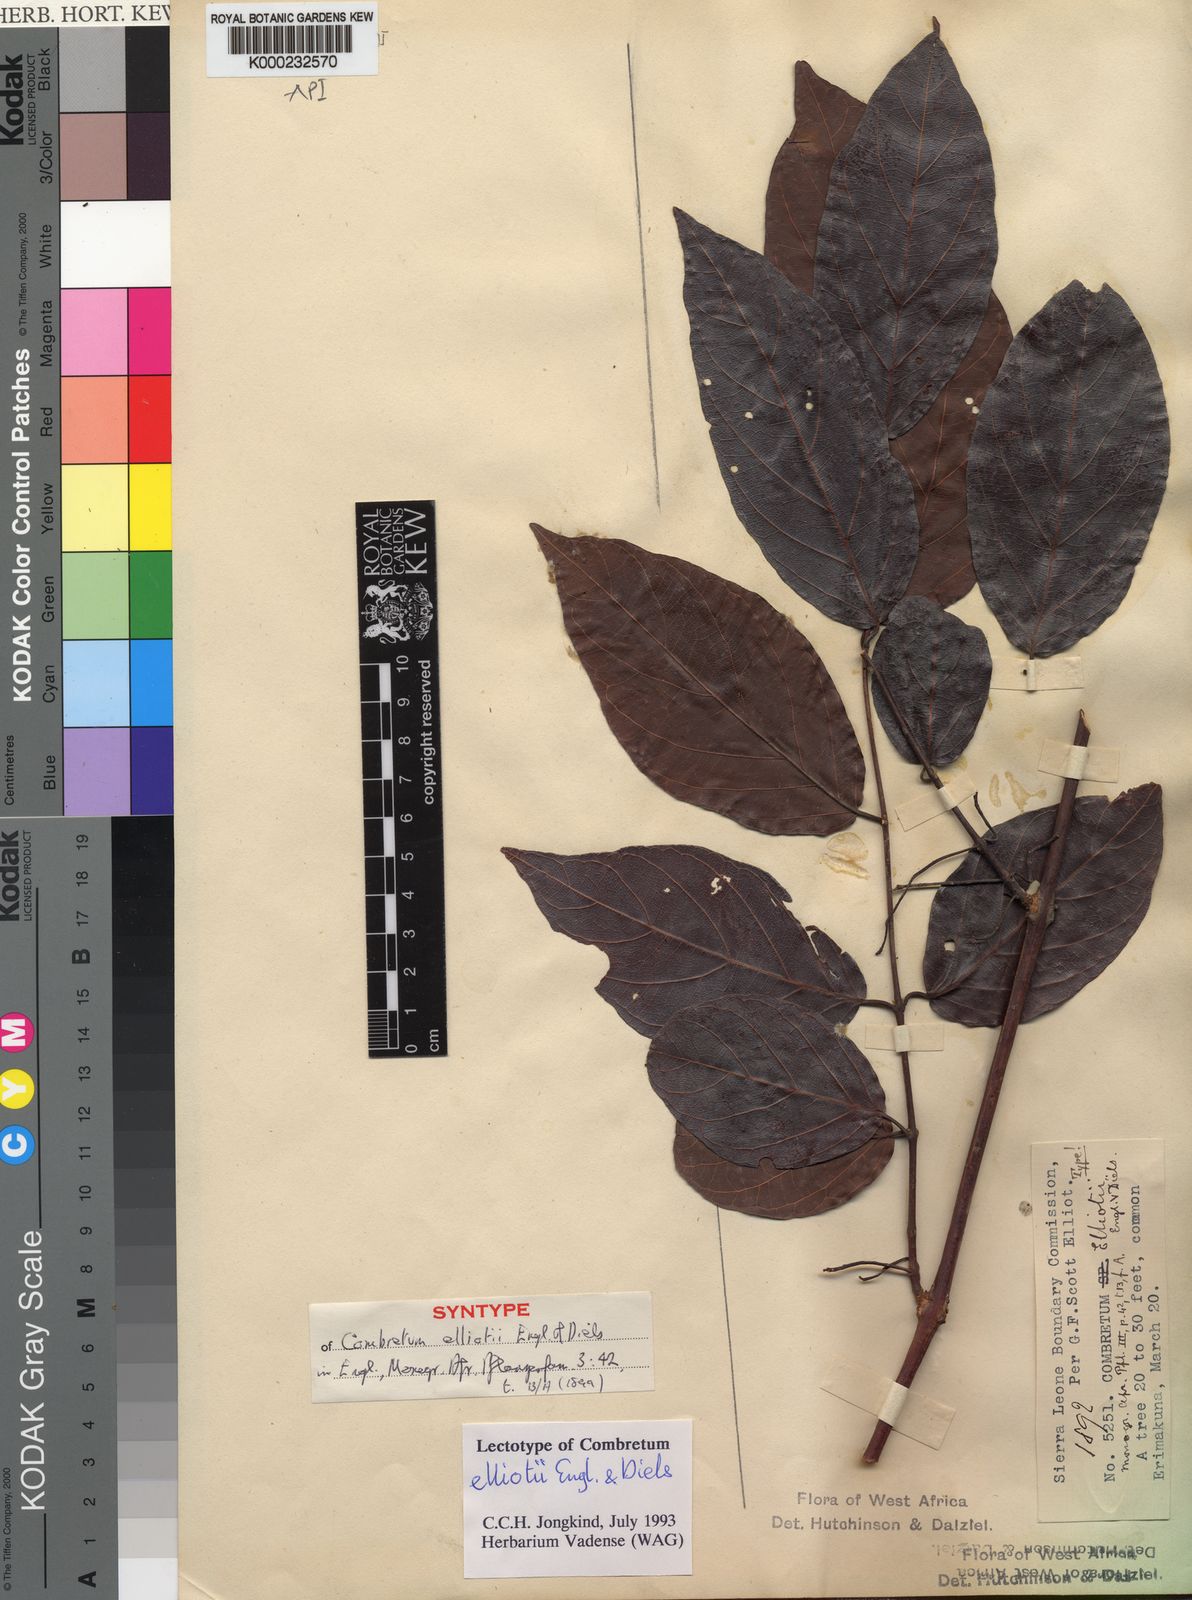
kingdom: Plantae
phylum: Tracheophyta
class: Magnoliopsida
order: Myrtales
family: Combretaceae
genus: Combretum
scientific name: Combretum nigricans
